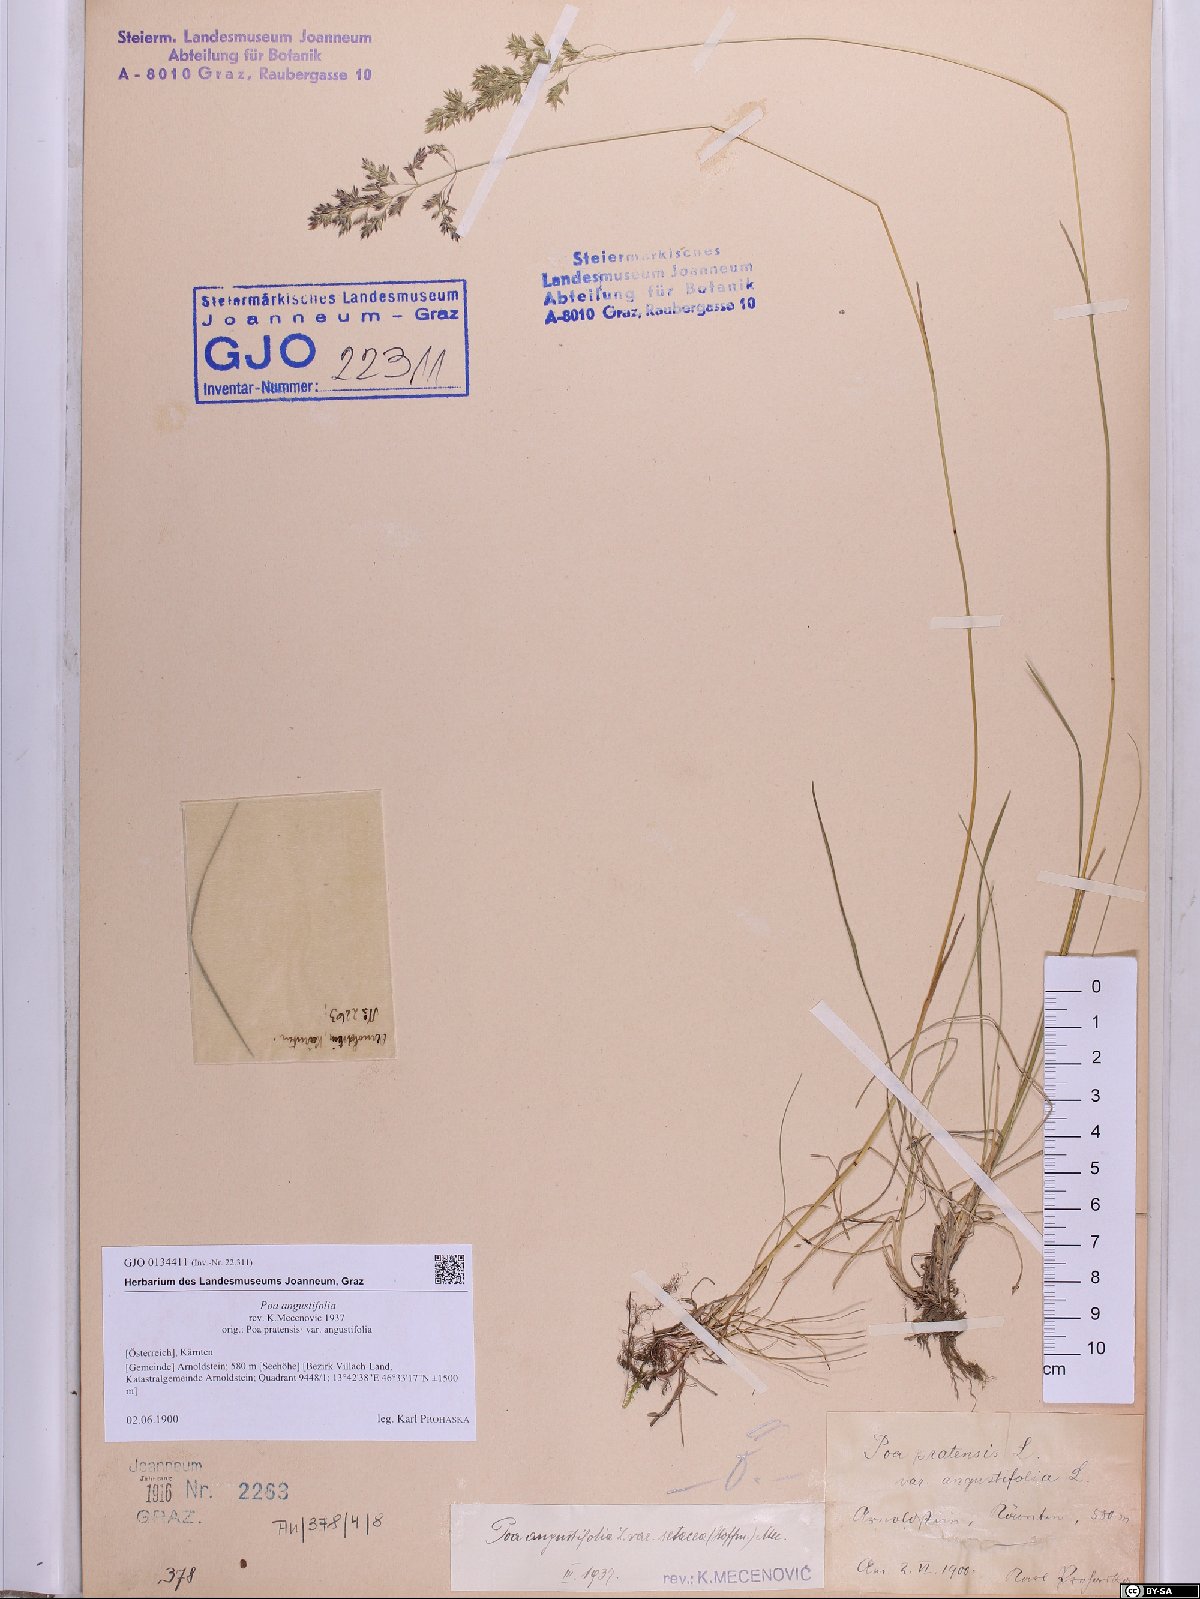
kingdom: Plantae
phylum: Tracheophyta
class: Liliopsida
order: Poales
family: Poaceae
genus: Poa
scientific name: Poa angustifolia
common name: Narrow-leaved meadow-grass
